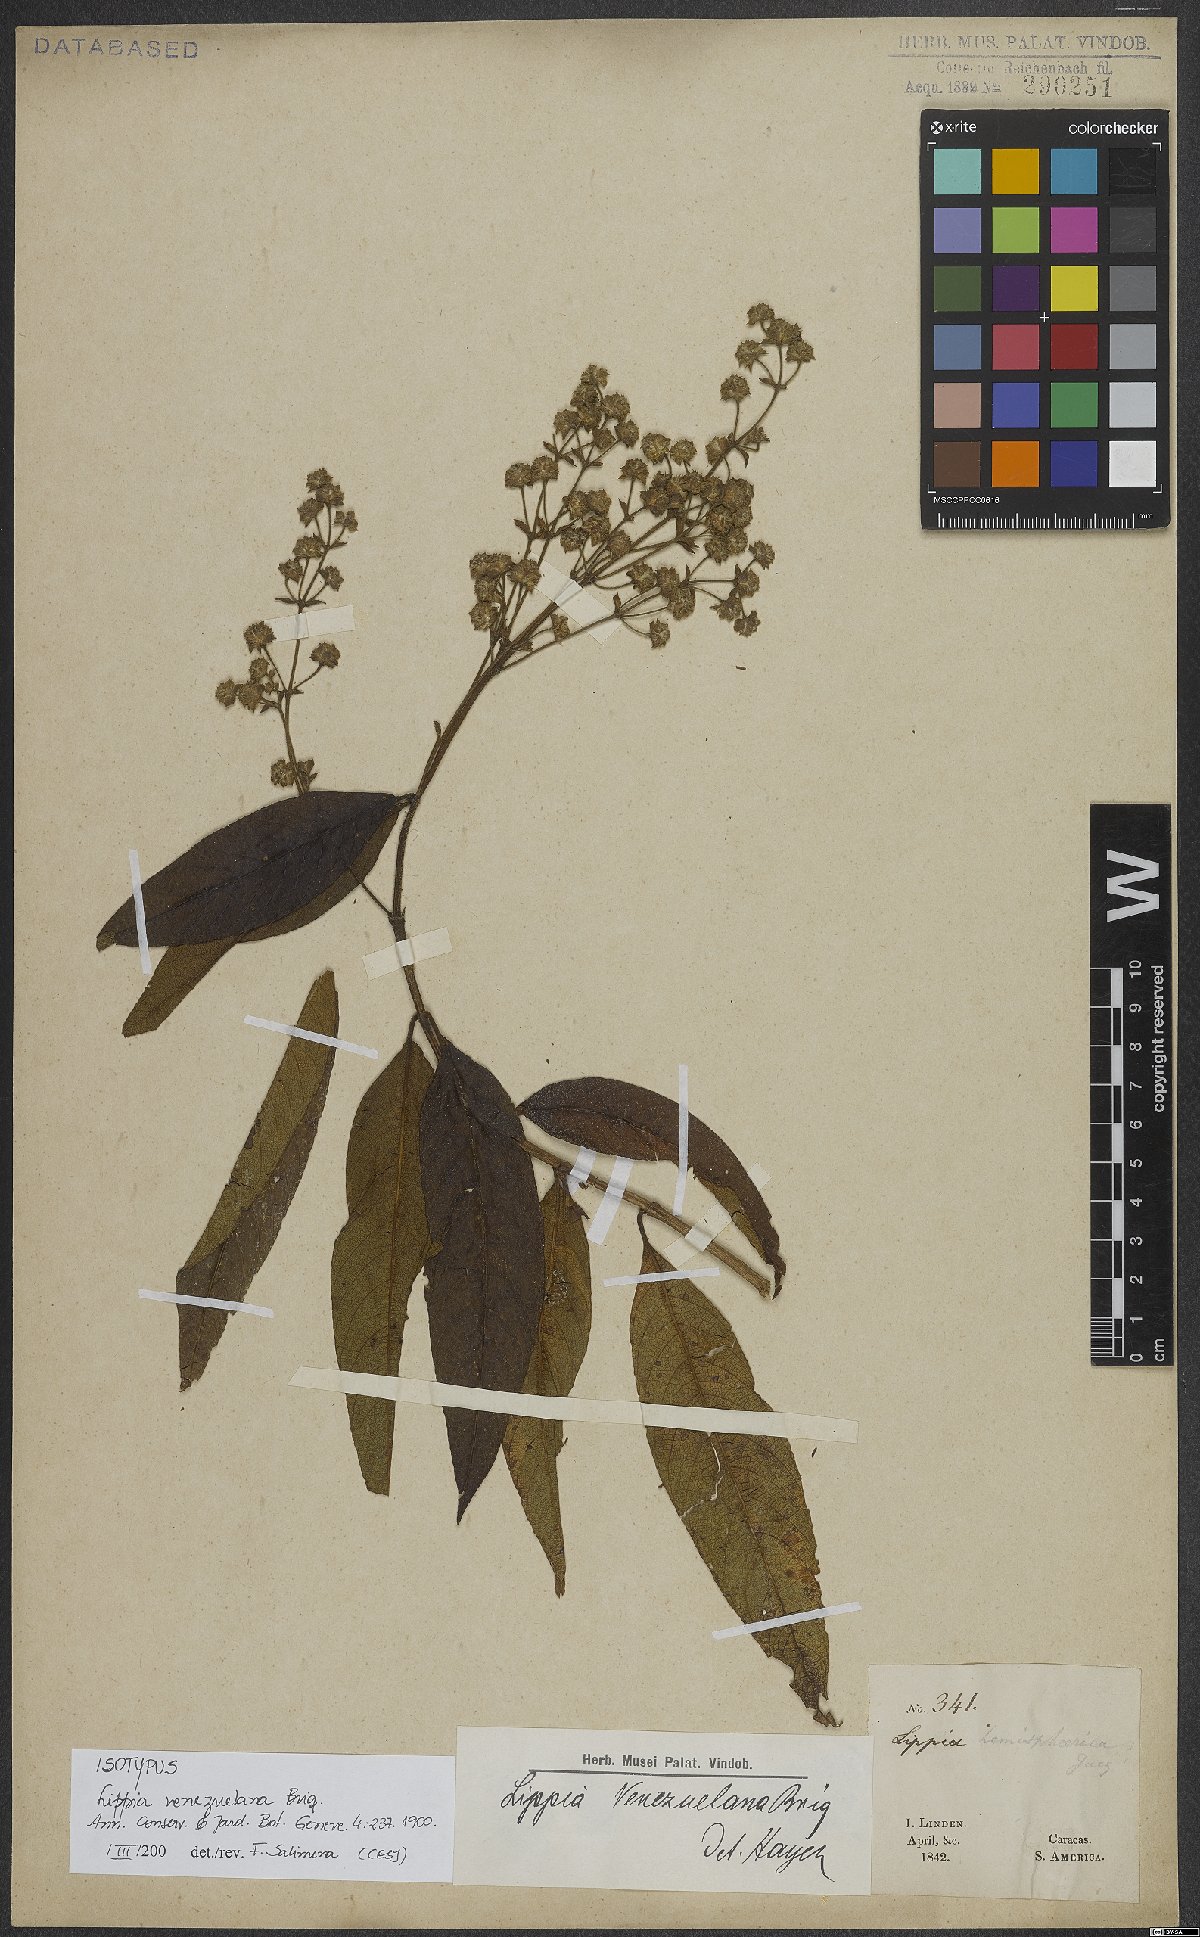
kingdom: Plantae
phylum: Tracheophyta
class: Magnoliopsida
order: Lamiales
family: Verbenaceae
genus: Lippia
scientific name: Lippia schlimii
